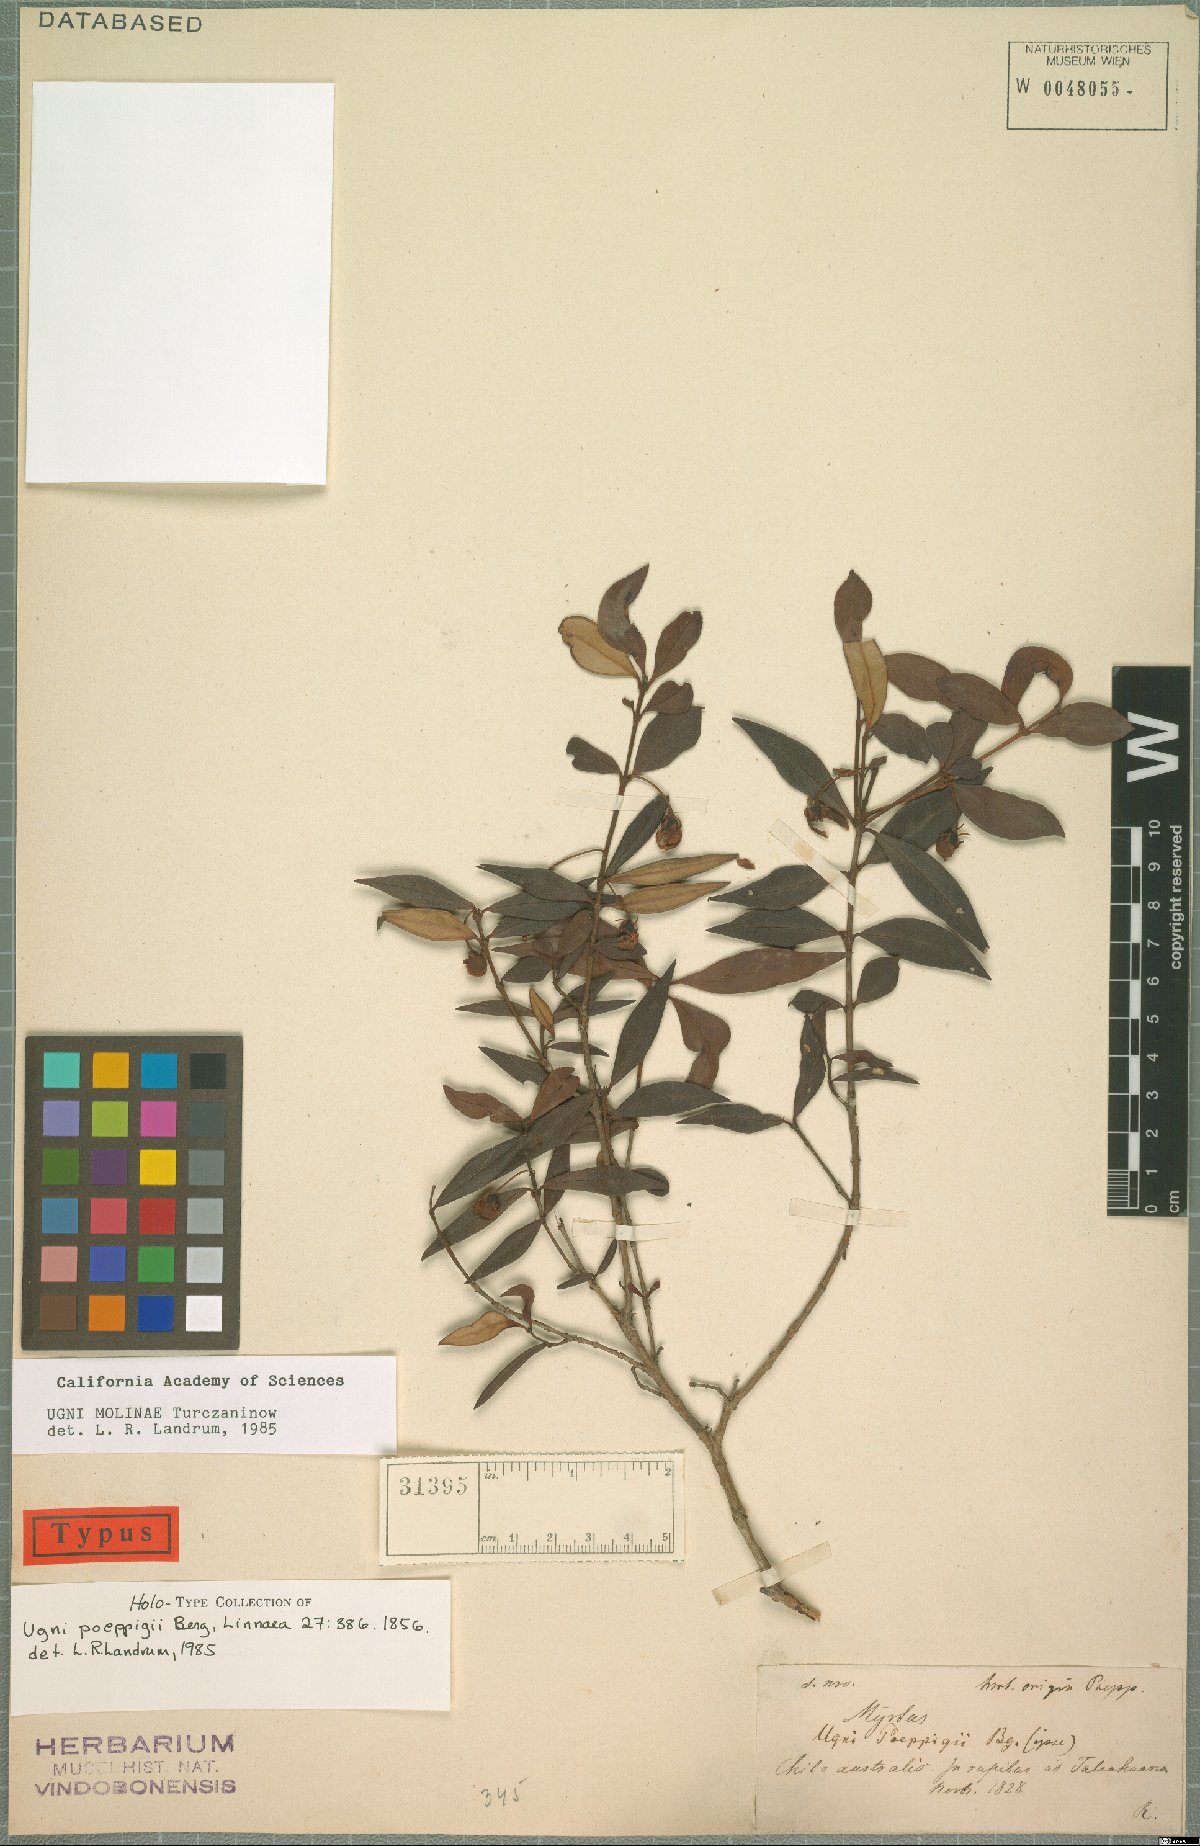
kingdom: Plantae
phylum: Tracheophyta
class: Magnoliopsida
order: Myrtales
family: Myrtaceae
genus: Ugni
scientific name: Ugni molinae
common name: Chilean-guava
